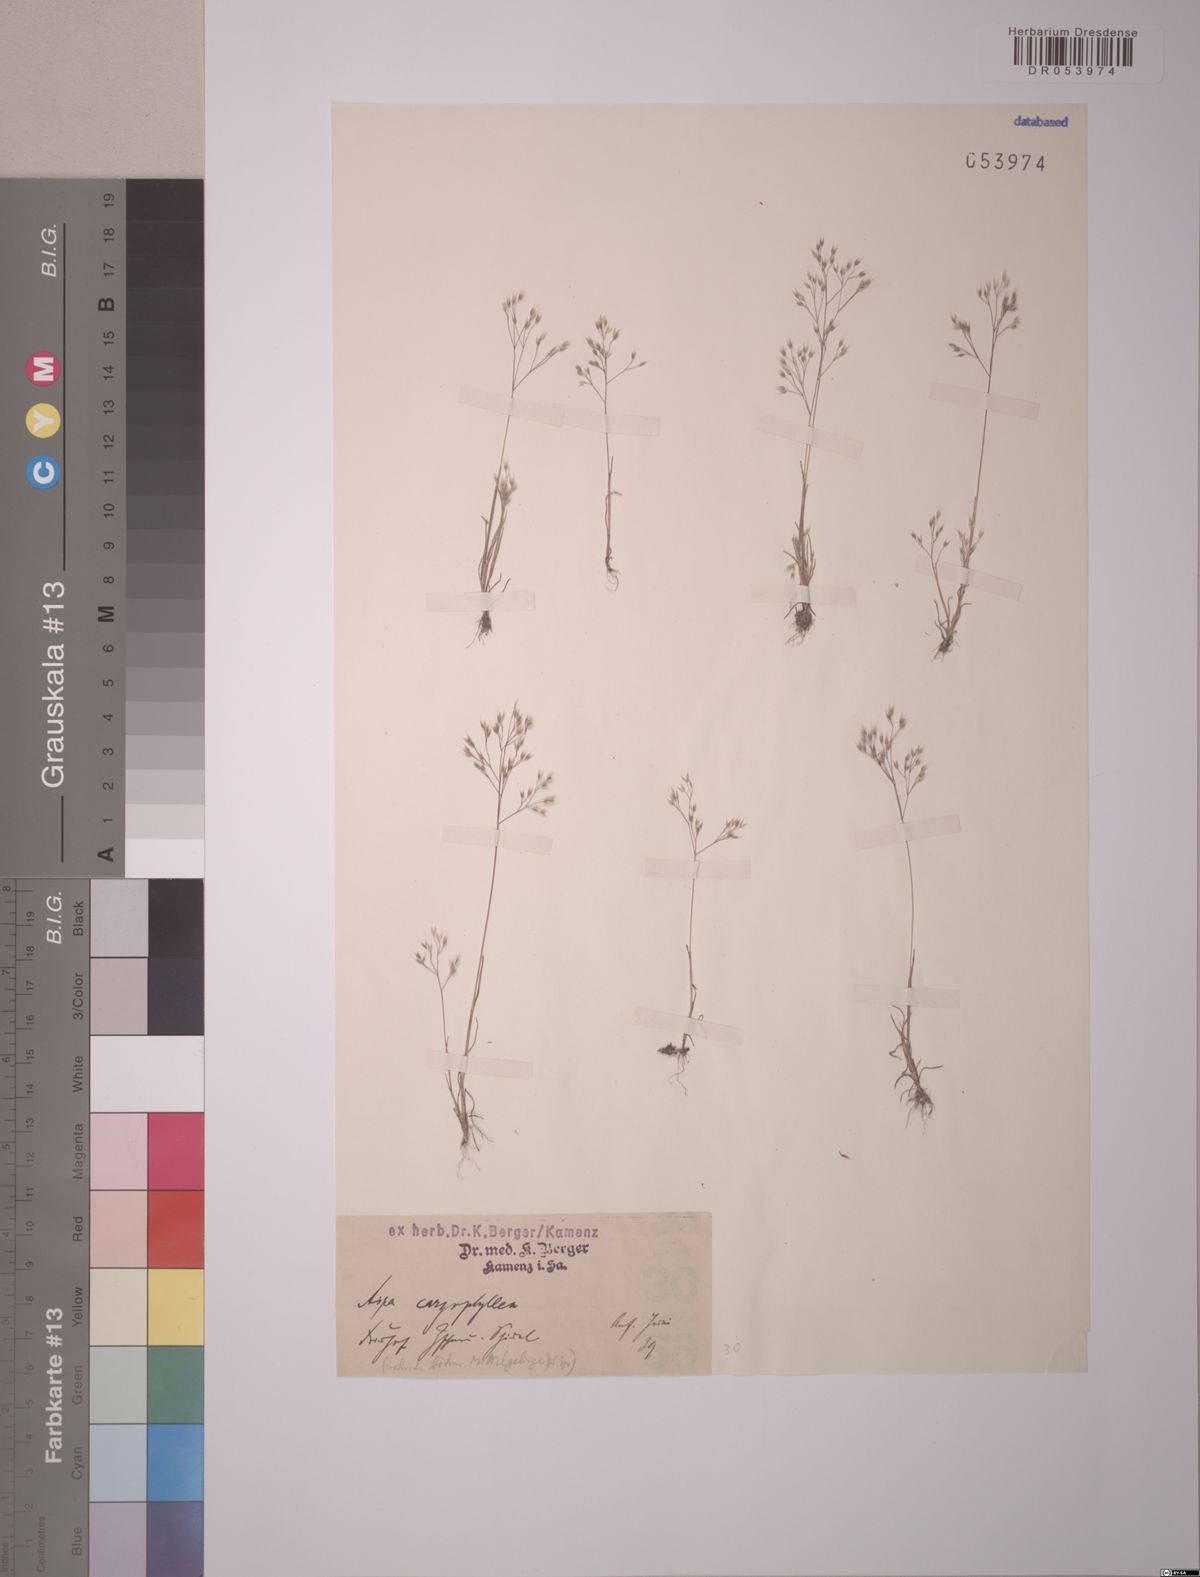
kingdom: Plantae
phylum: Tracheophyta
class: Liliopsida
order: Poales
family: Poaceae
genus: Aira
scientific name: Aira caryophyllea
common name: Silver hairgrass
